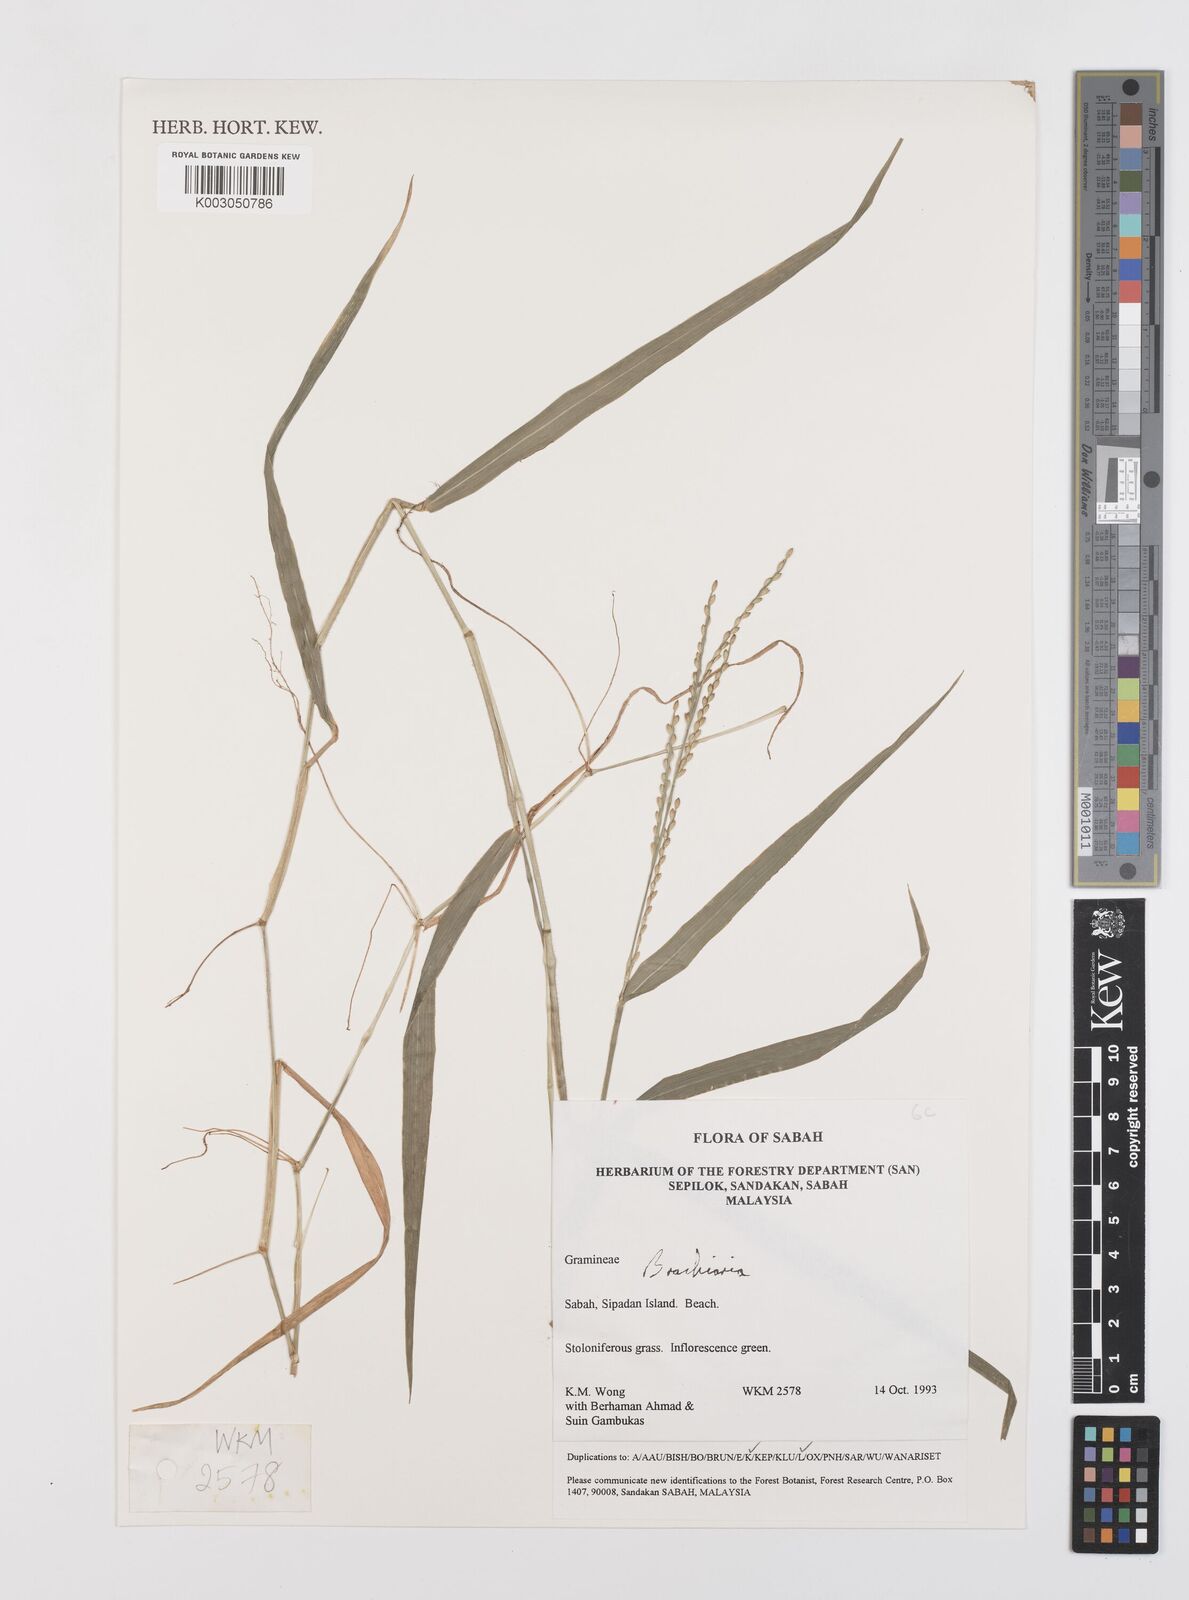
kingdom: Plantae
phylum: Tracheophyta
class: Liliopsida
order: Poales
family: Poaceae
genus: Brachiaria
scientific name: Brachiaria
